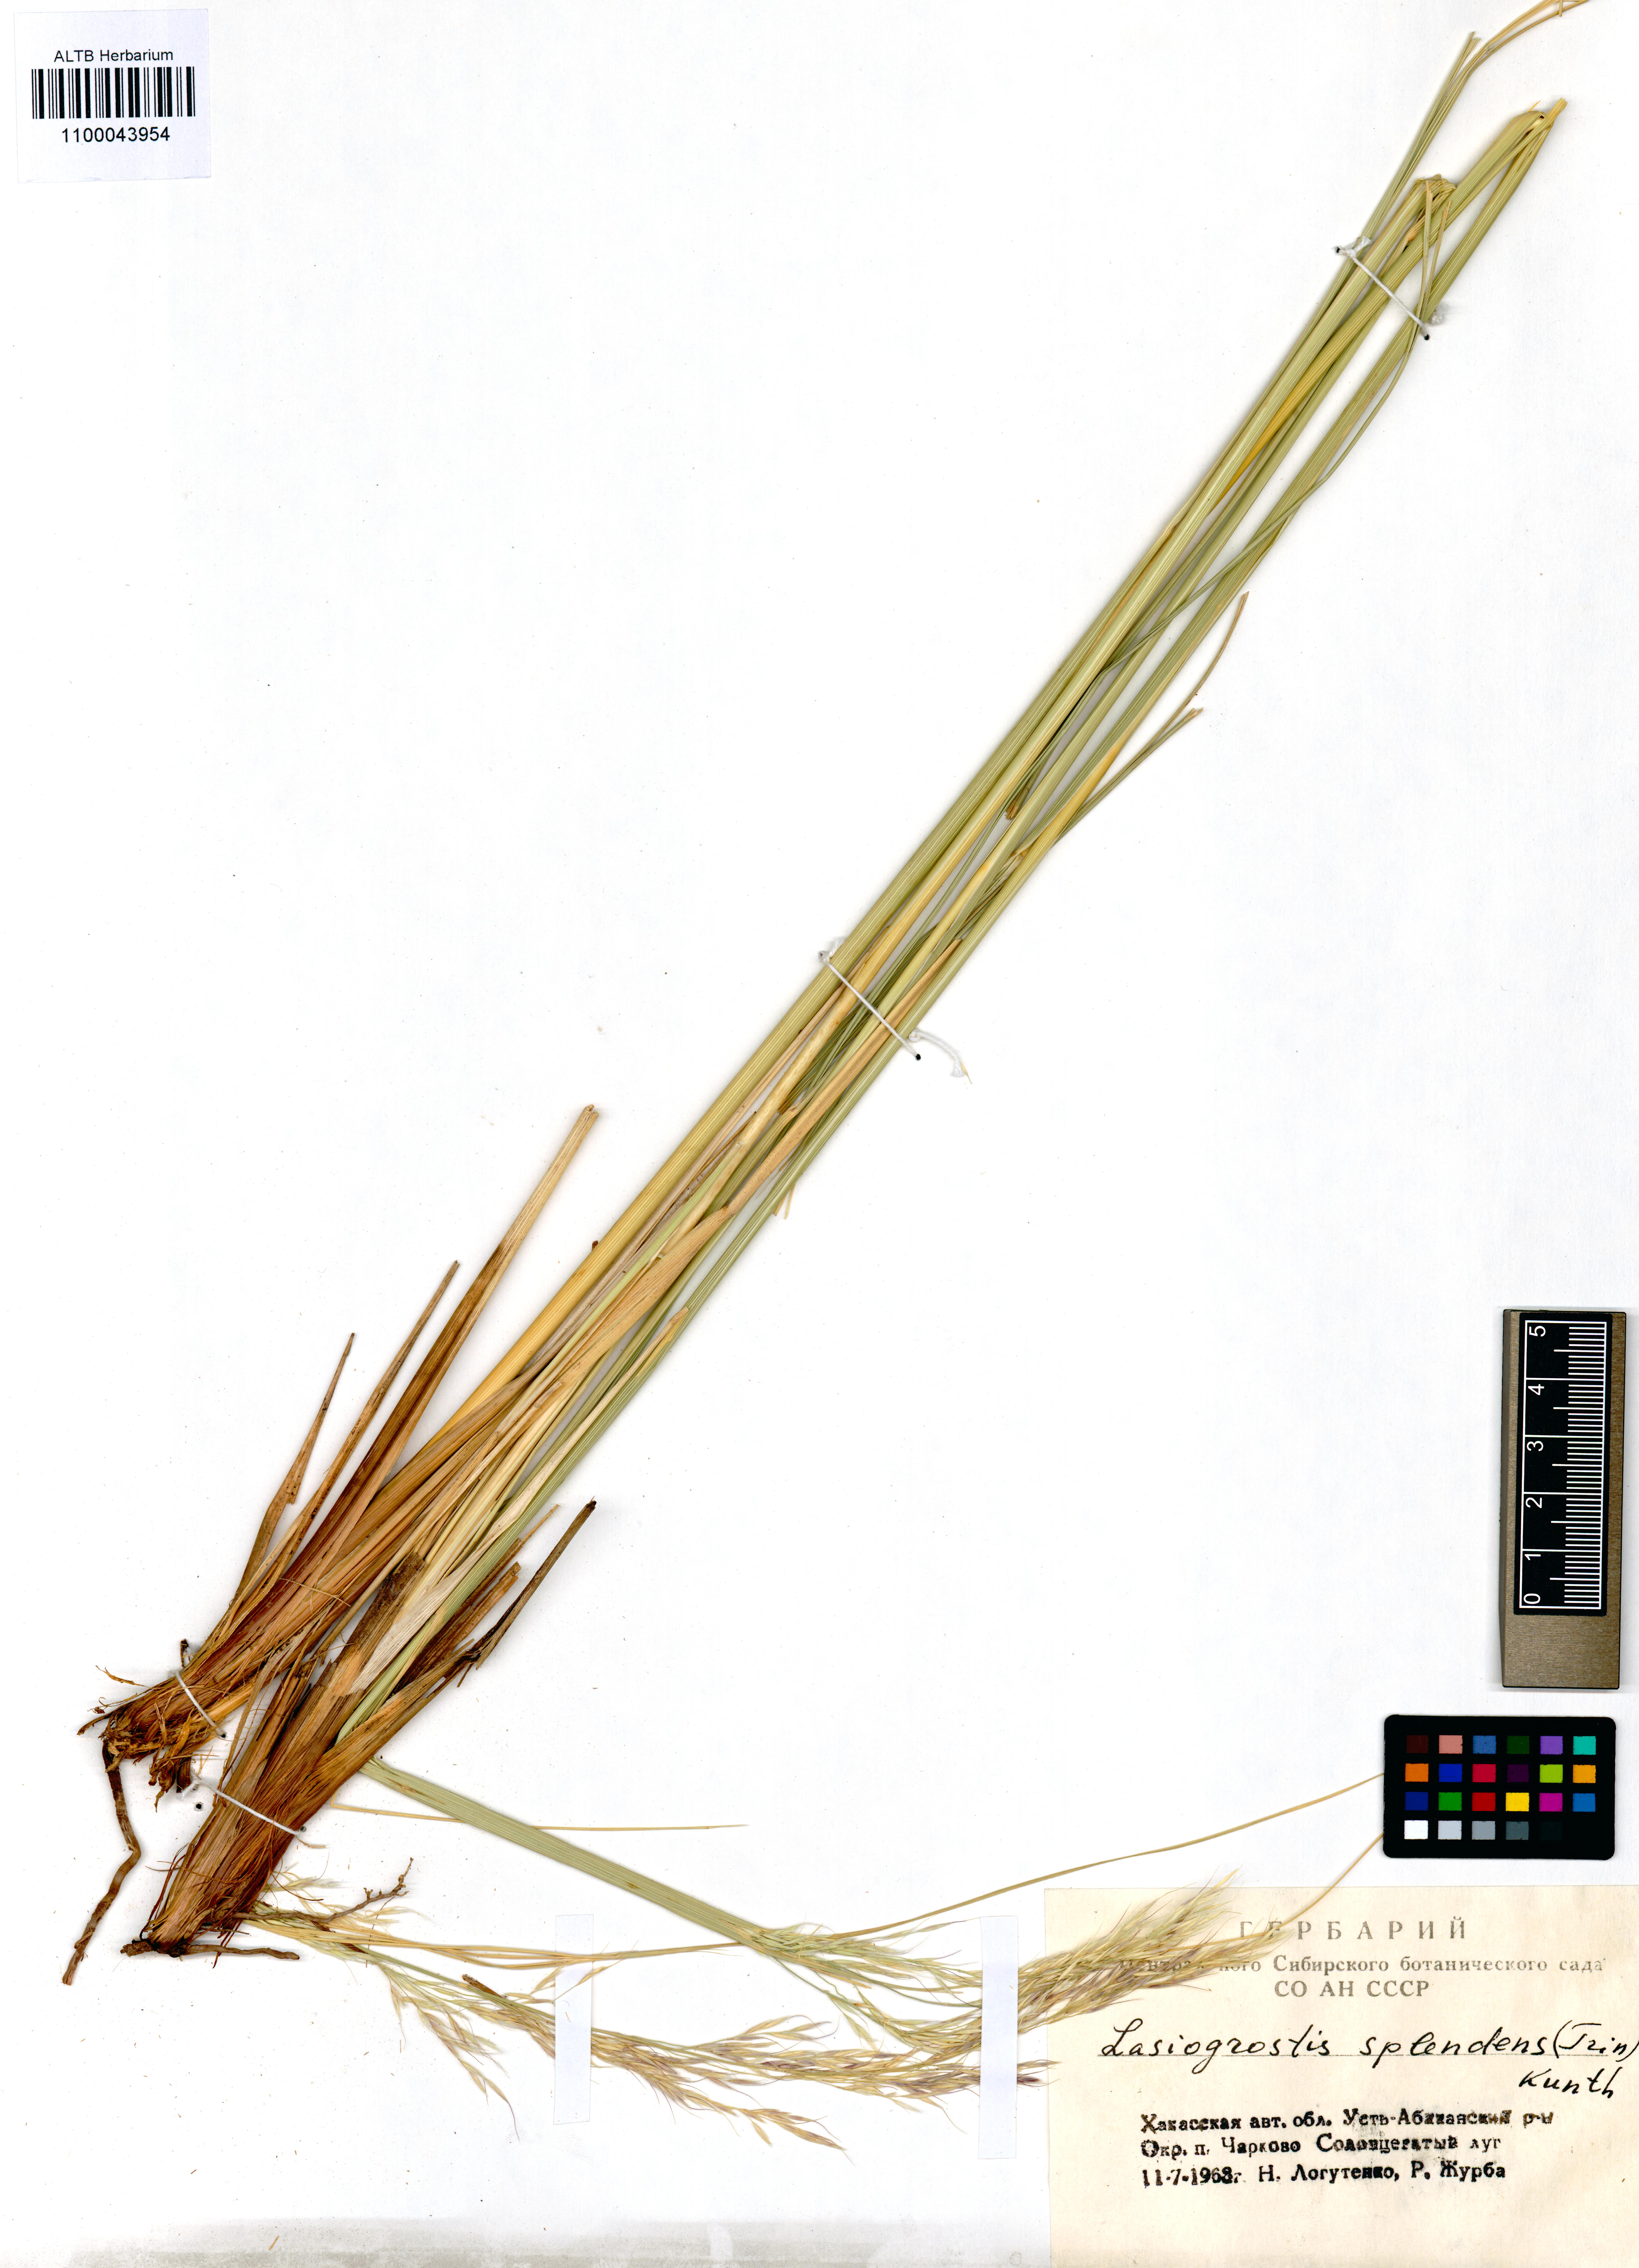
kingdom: Plantae
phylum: Tracheophyta
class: Liliopsida
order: Poales
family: Poaceae
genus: Neotrinia
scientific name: Neotrinia splendens
